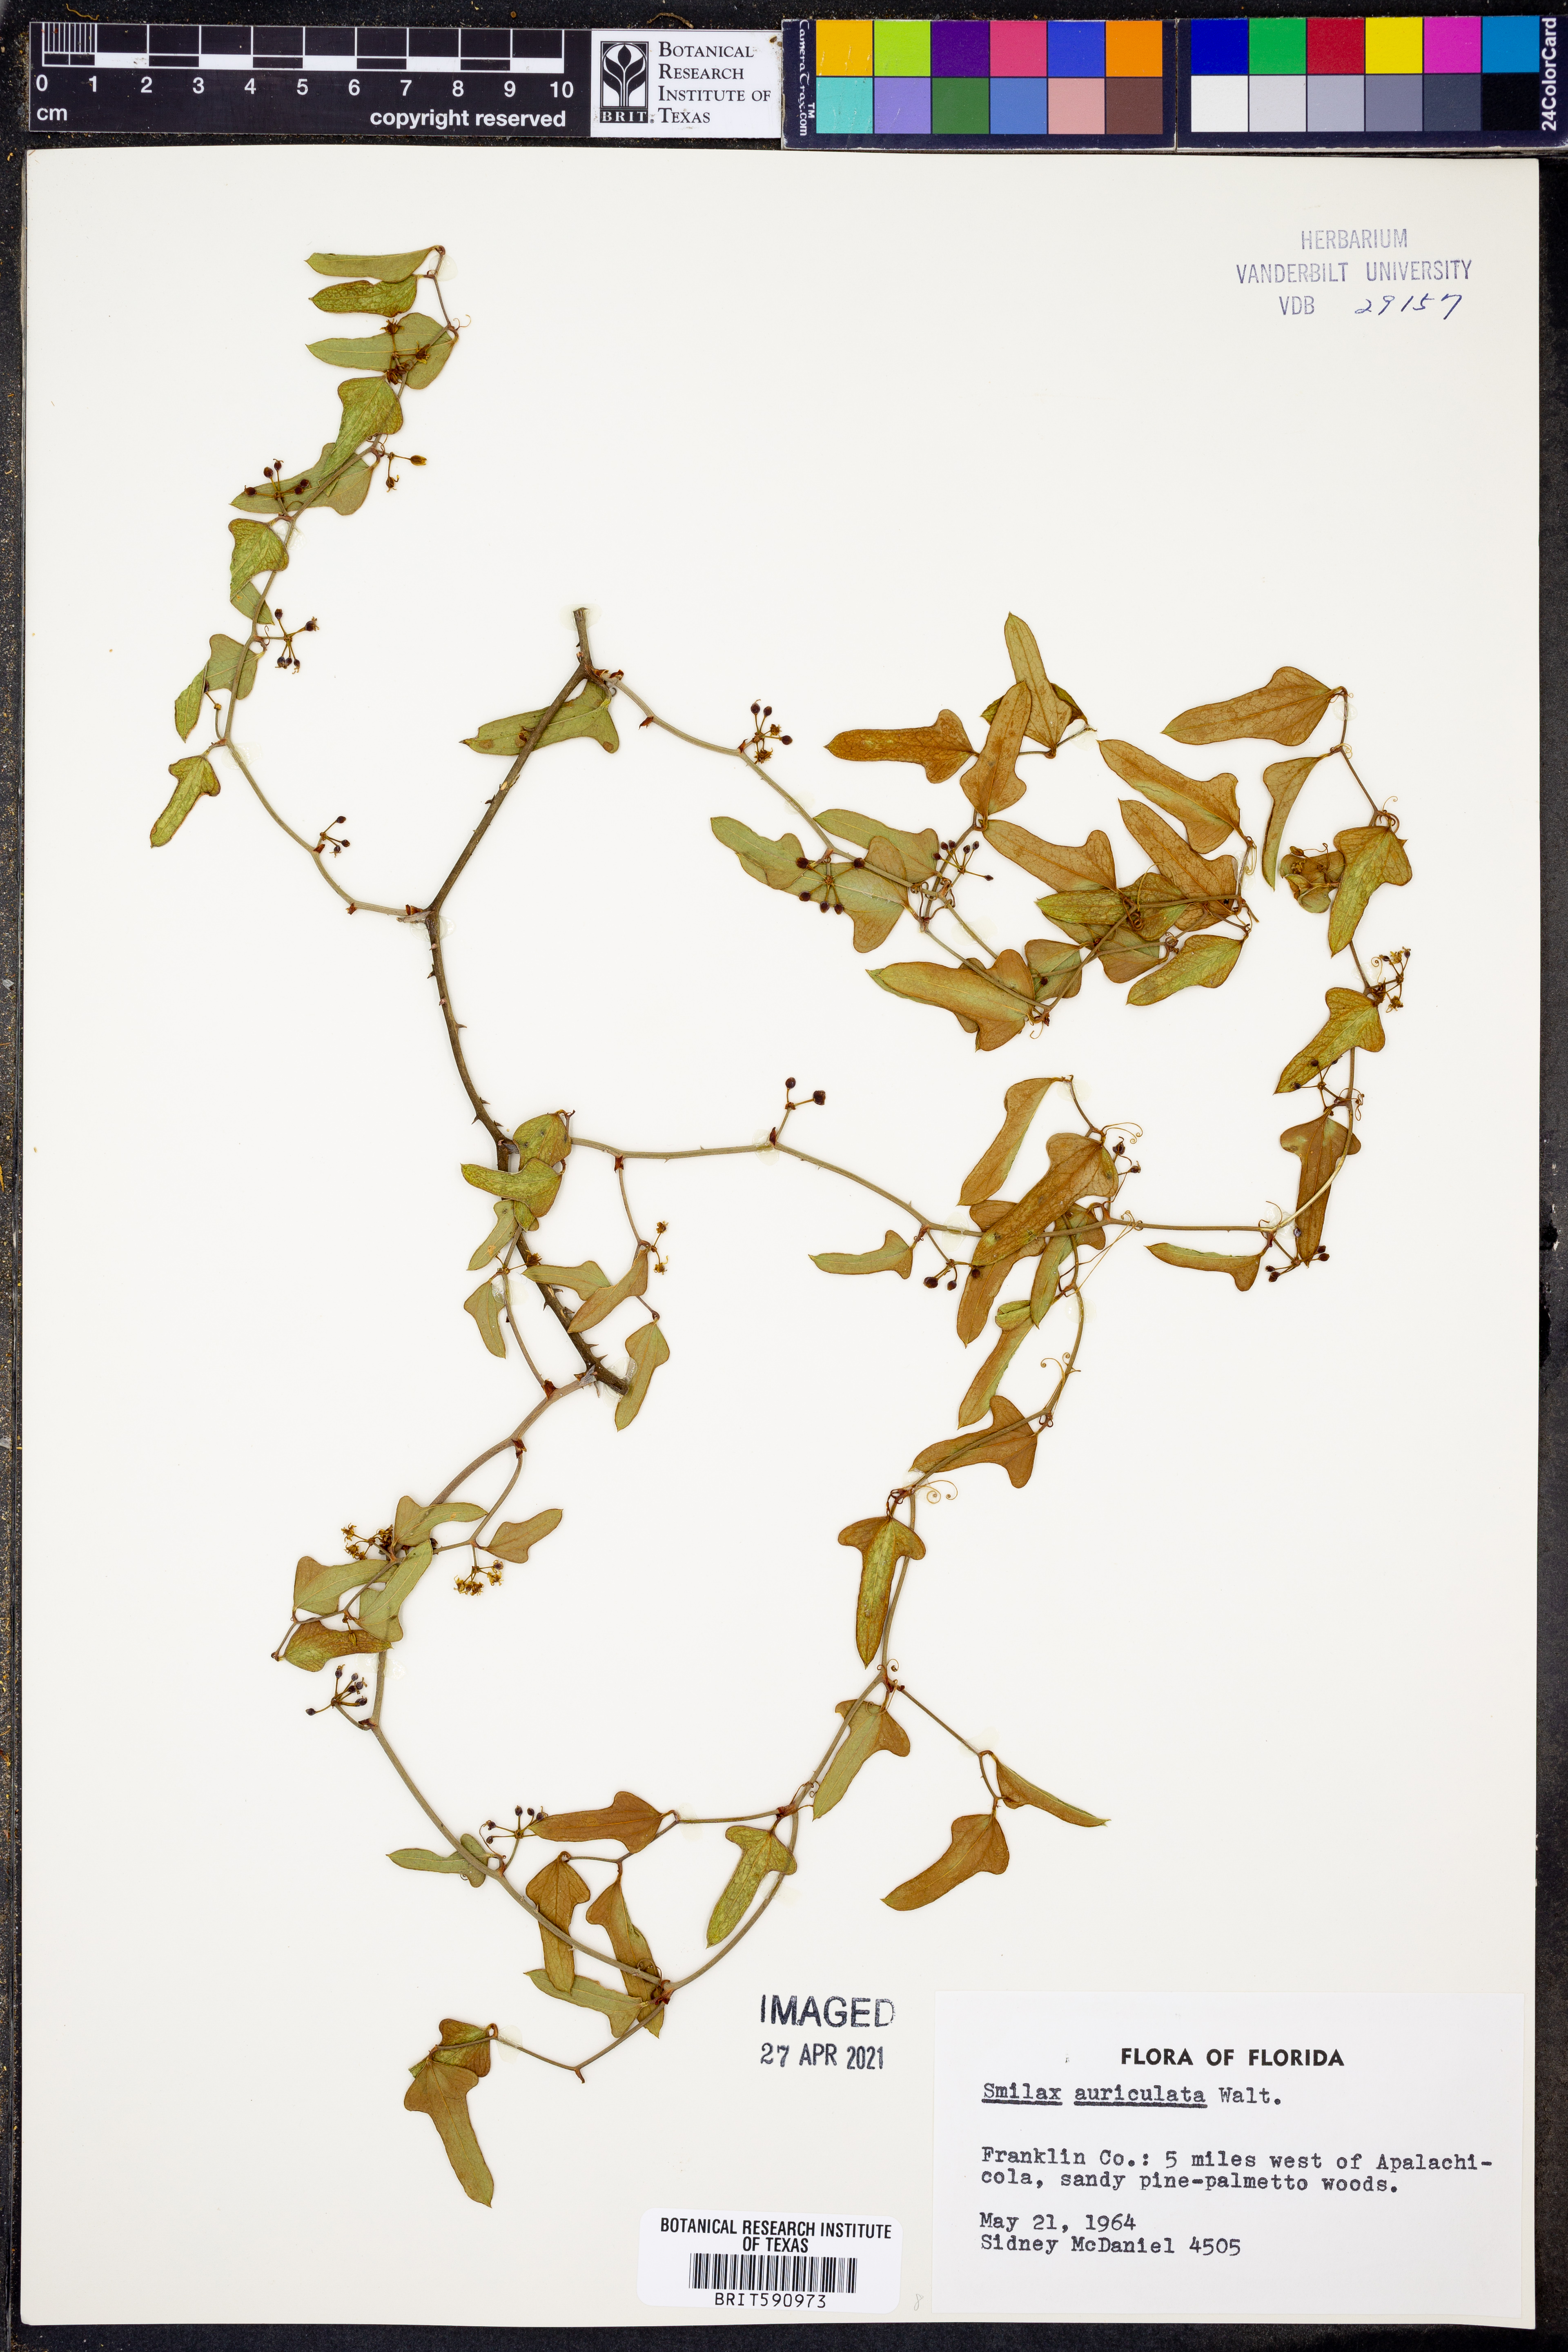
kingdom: Plantae
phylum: Tracheophyta
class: Liliopsida
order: Liliales
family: Smilacaceae
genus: Smilax
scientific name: Smilax auriculata
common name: Wild bamboo
